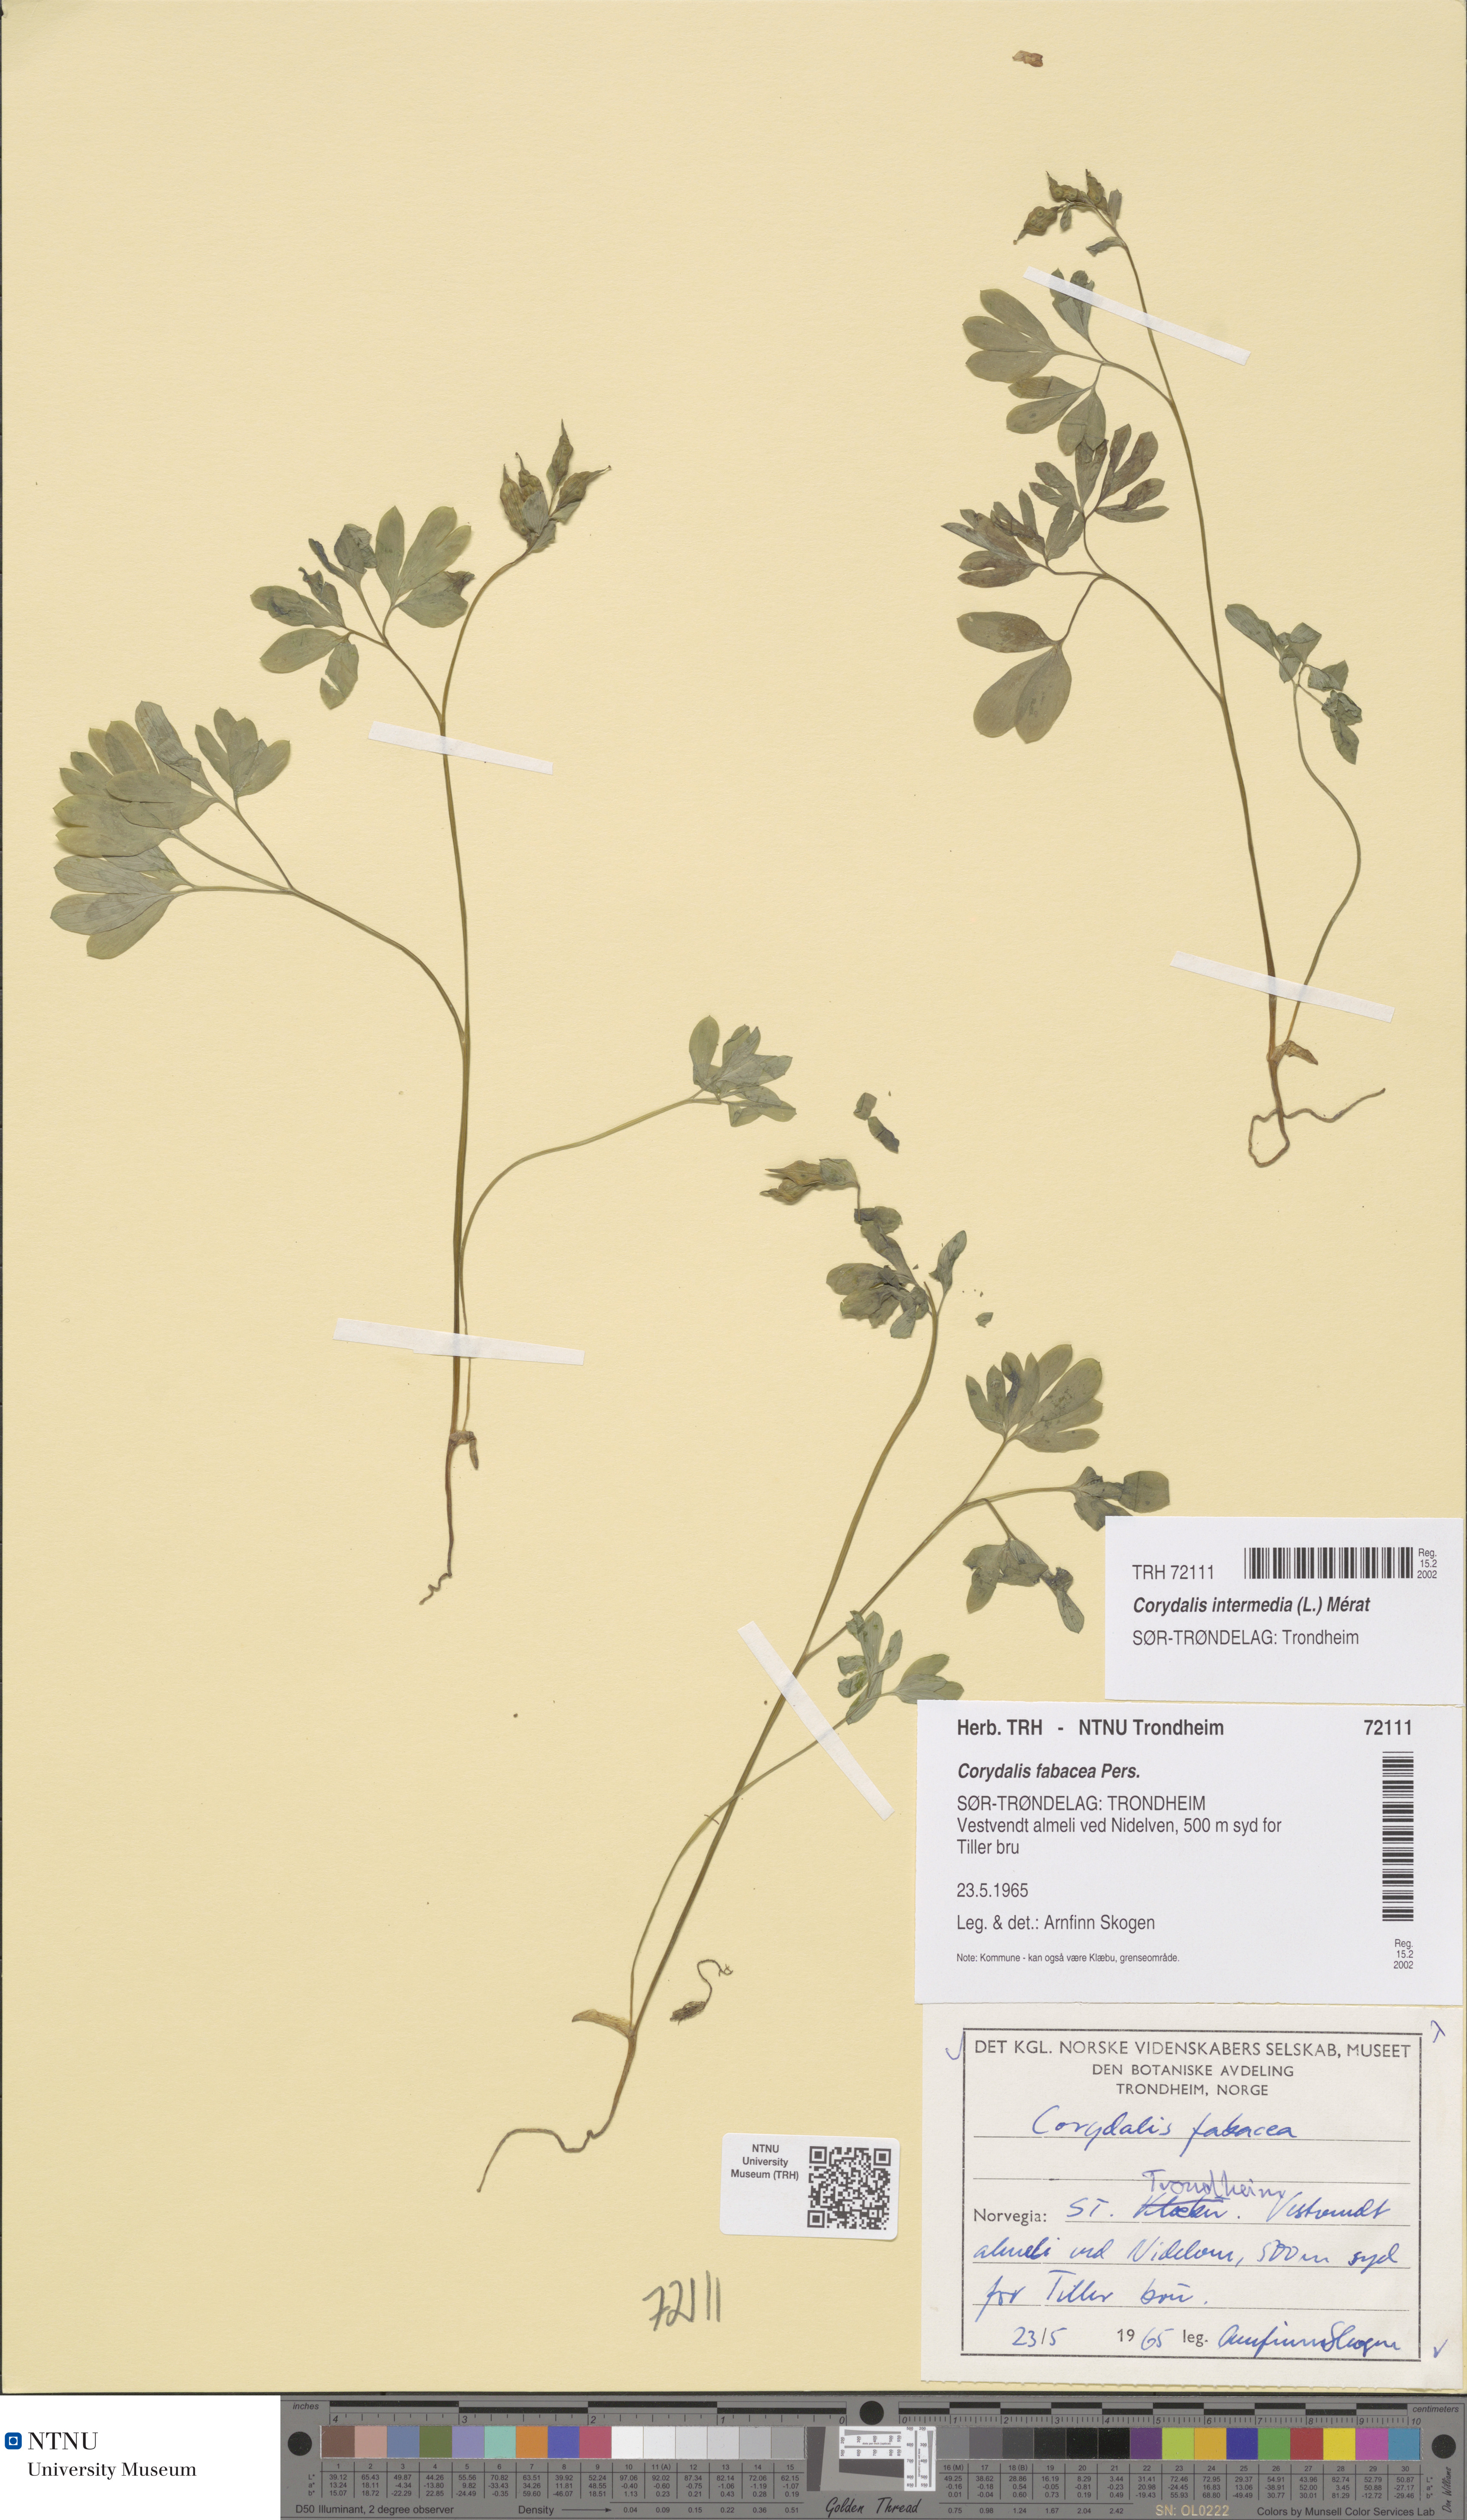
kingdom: Plantae
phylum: Tracheophyta
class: Magnoliopsida
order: Ranunculales
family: Papaveraceae
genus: Corydalis
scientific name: Corydalis intermedia
